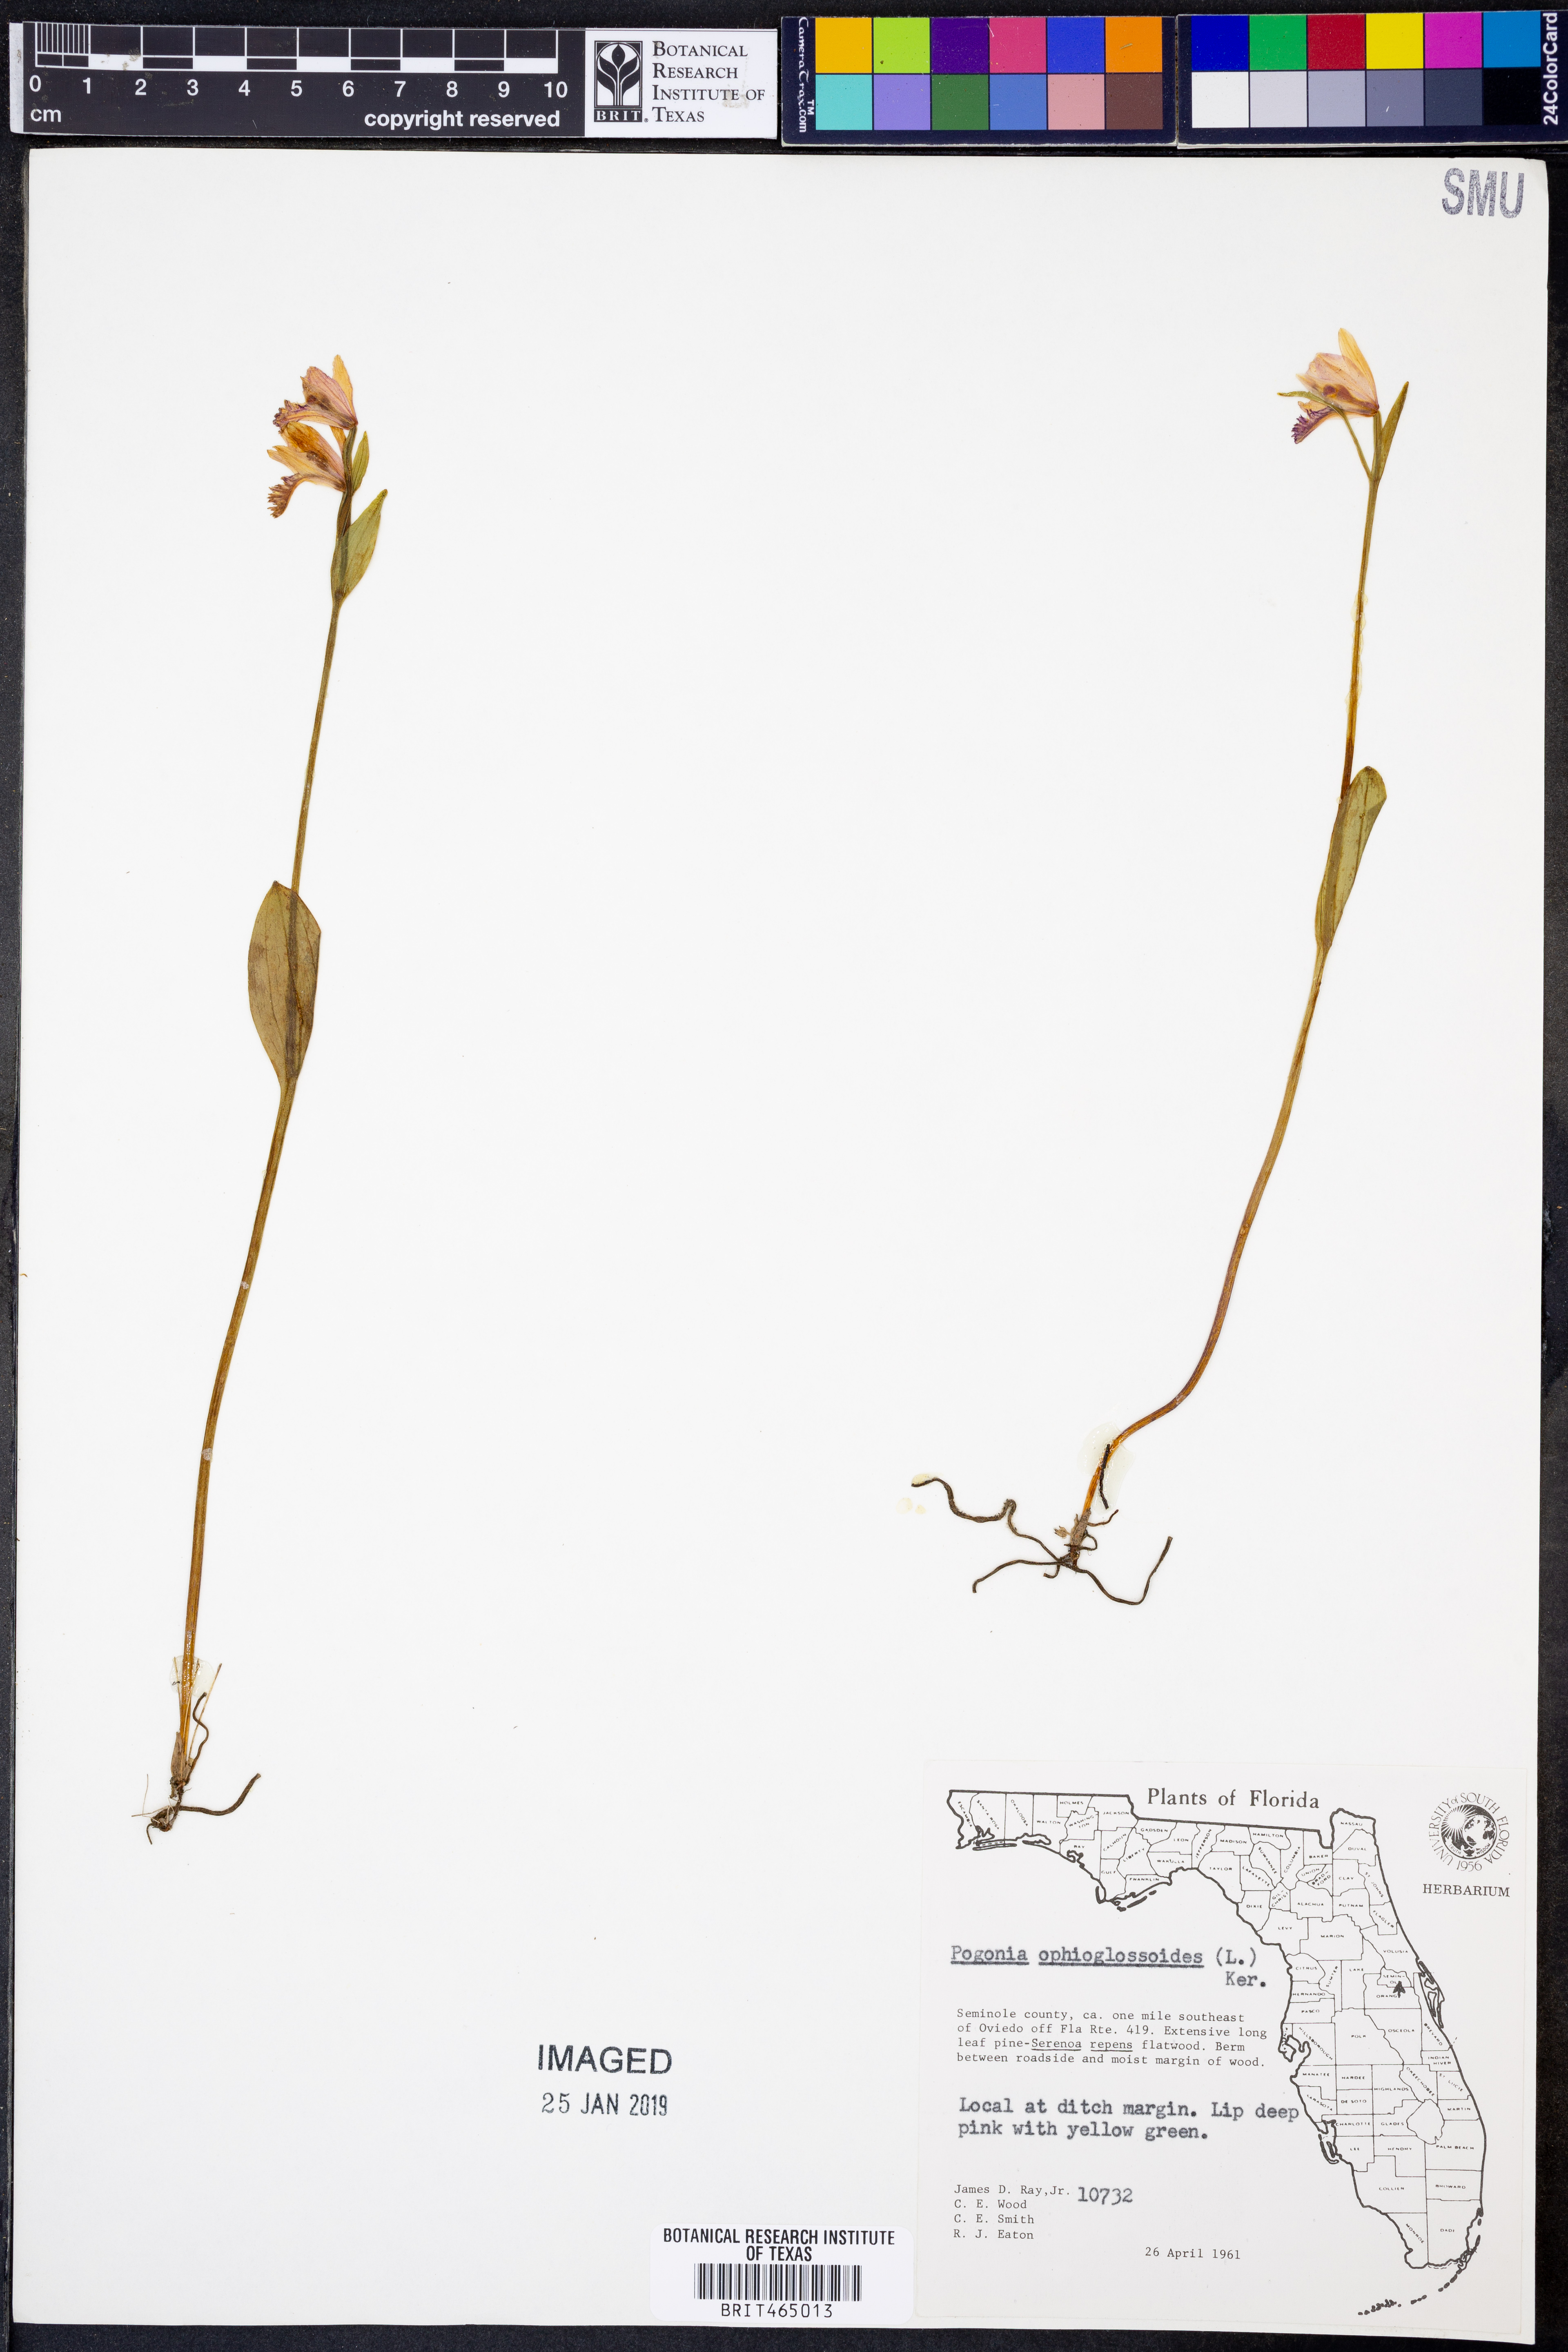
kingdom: Plantae
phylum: Tracheophyta
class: Liliopsida
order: Asparagales
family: Orchidaceae
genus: Pogonia
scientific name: Pogonia ophioglossoides
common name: Rose pogonia
